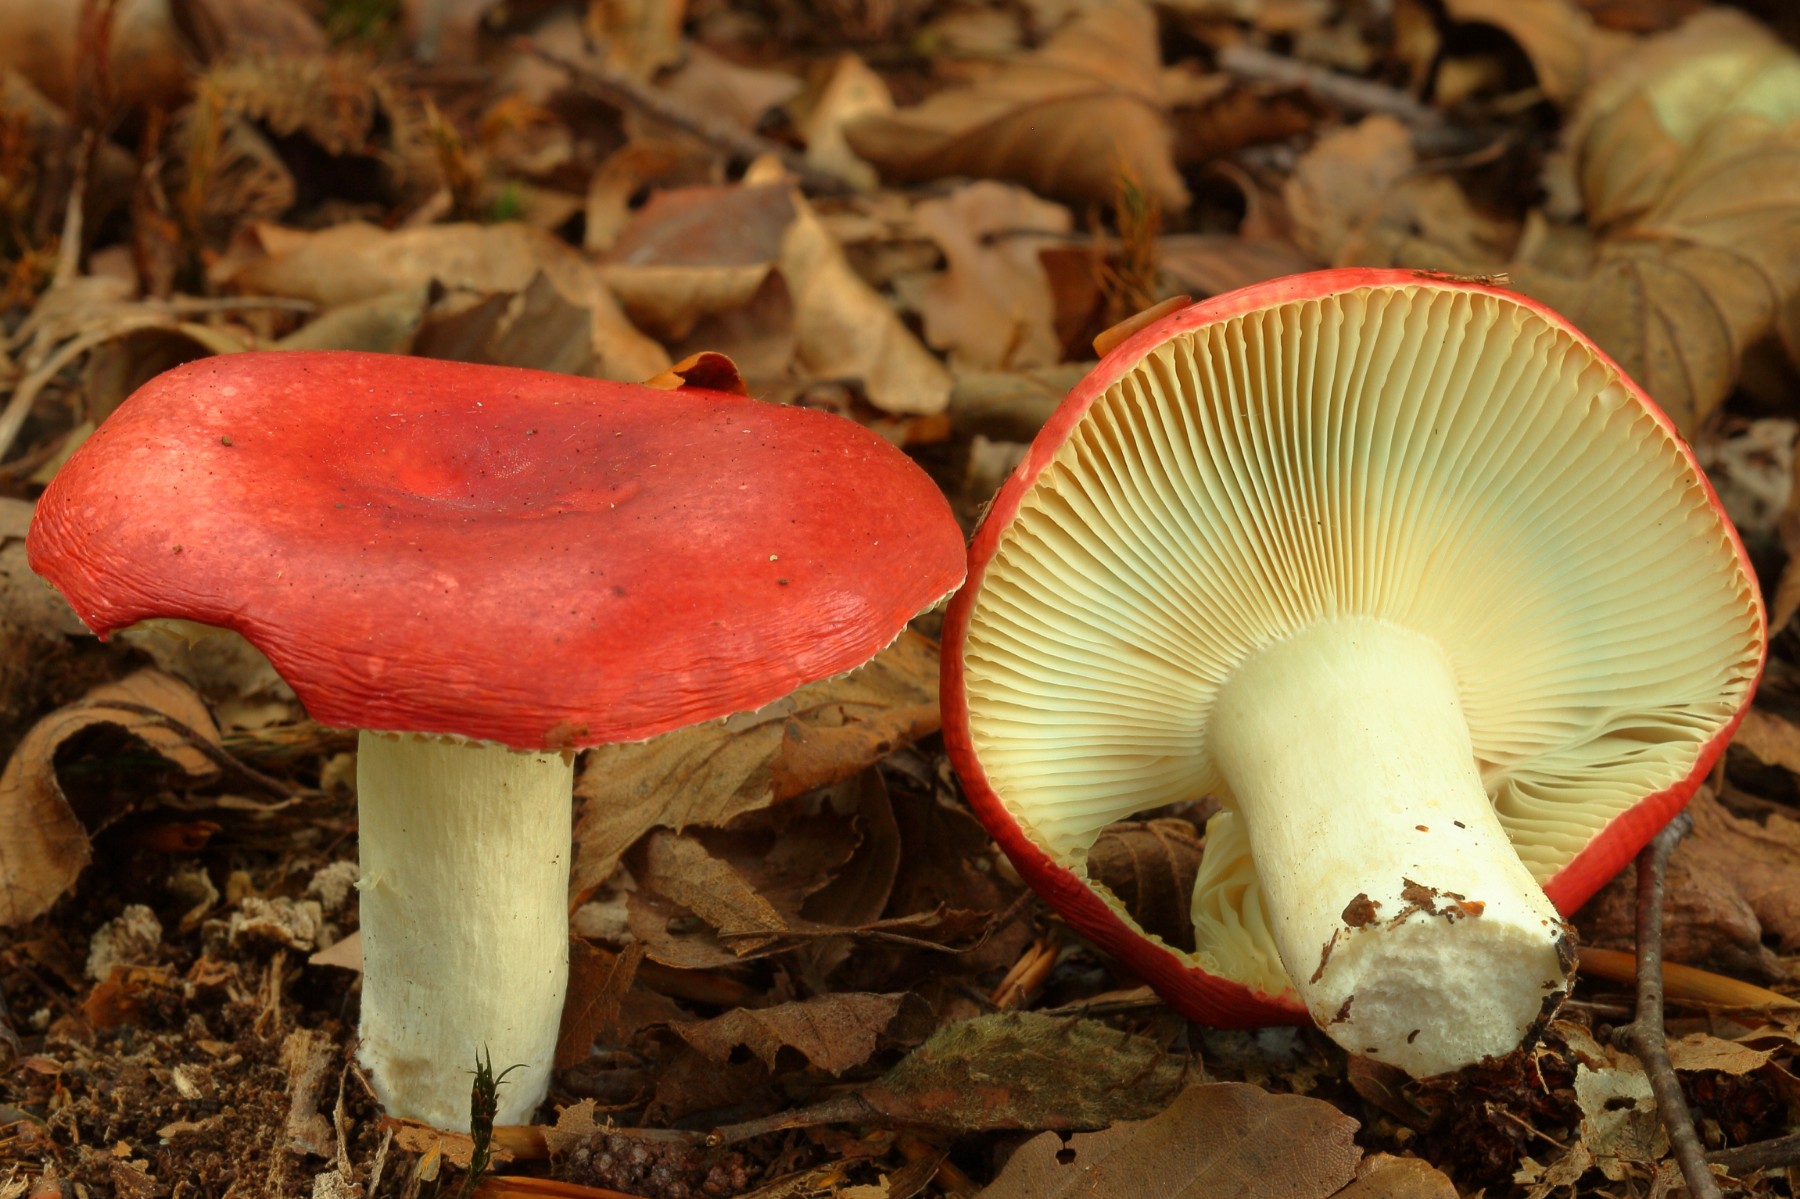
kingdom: Fungi
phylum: Basidiomycota
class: Agaricomycetes
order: Russulales
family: Russulaceae
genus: Russula
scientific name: Russula nobilis
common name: lille gift-skørhat
